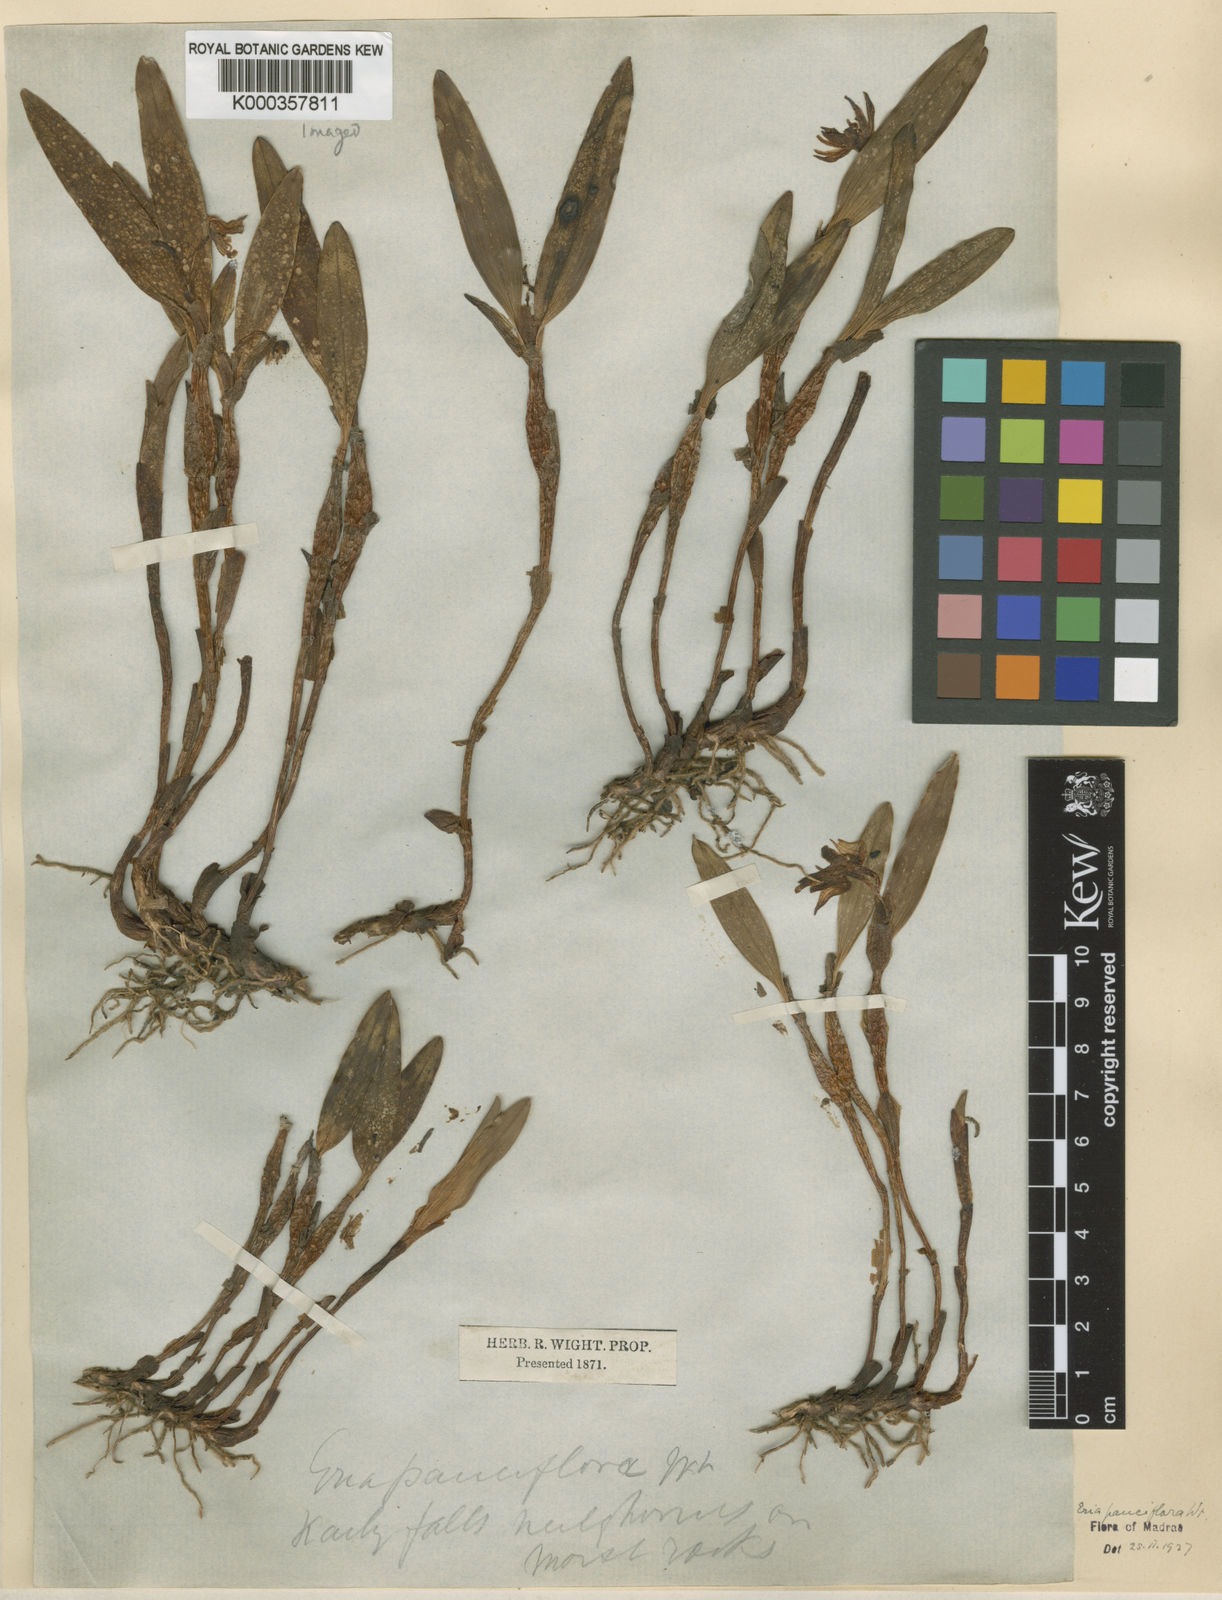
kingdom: Plantae
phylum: Tracheophyta
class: Liliopsida
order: Asparagales
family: Orchidaceae
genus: Cylindrolobus
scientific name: Cylindrolobus pauciflorus
